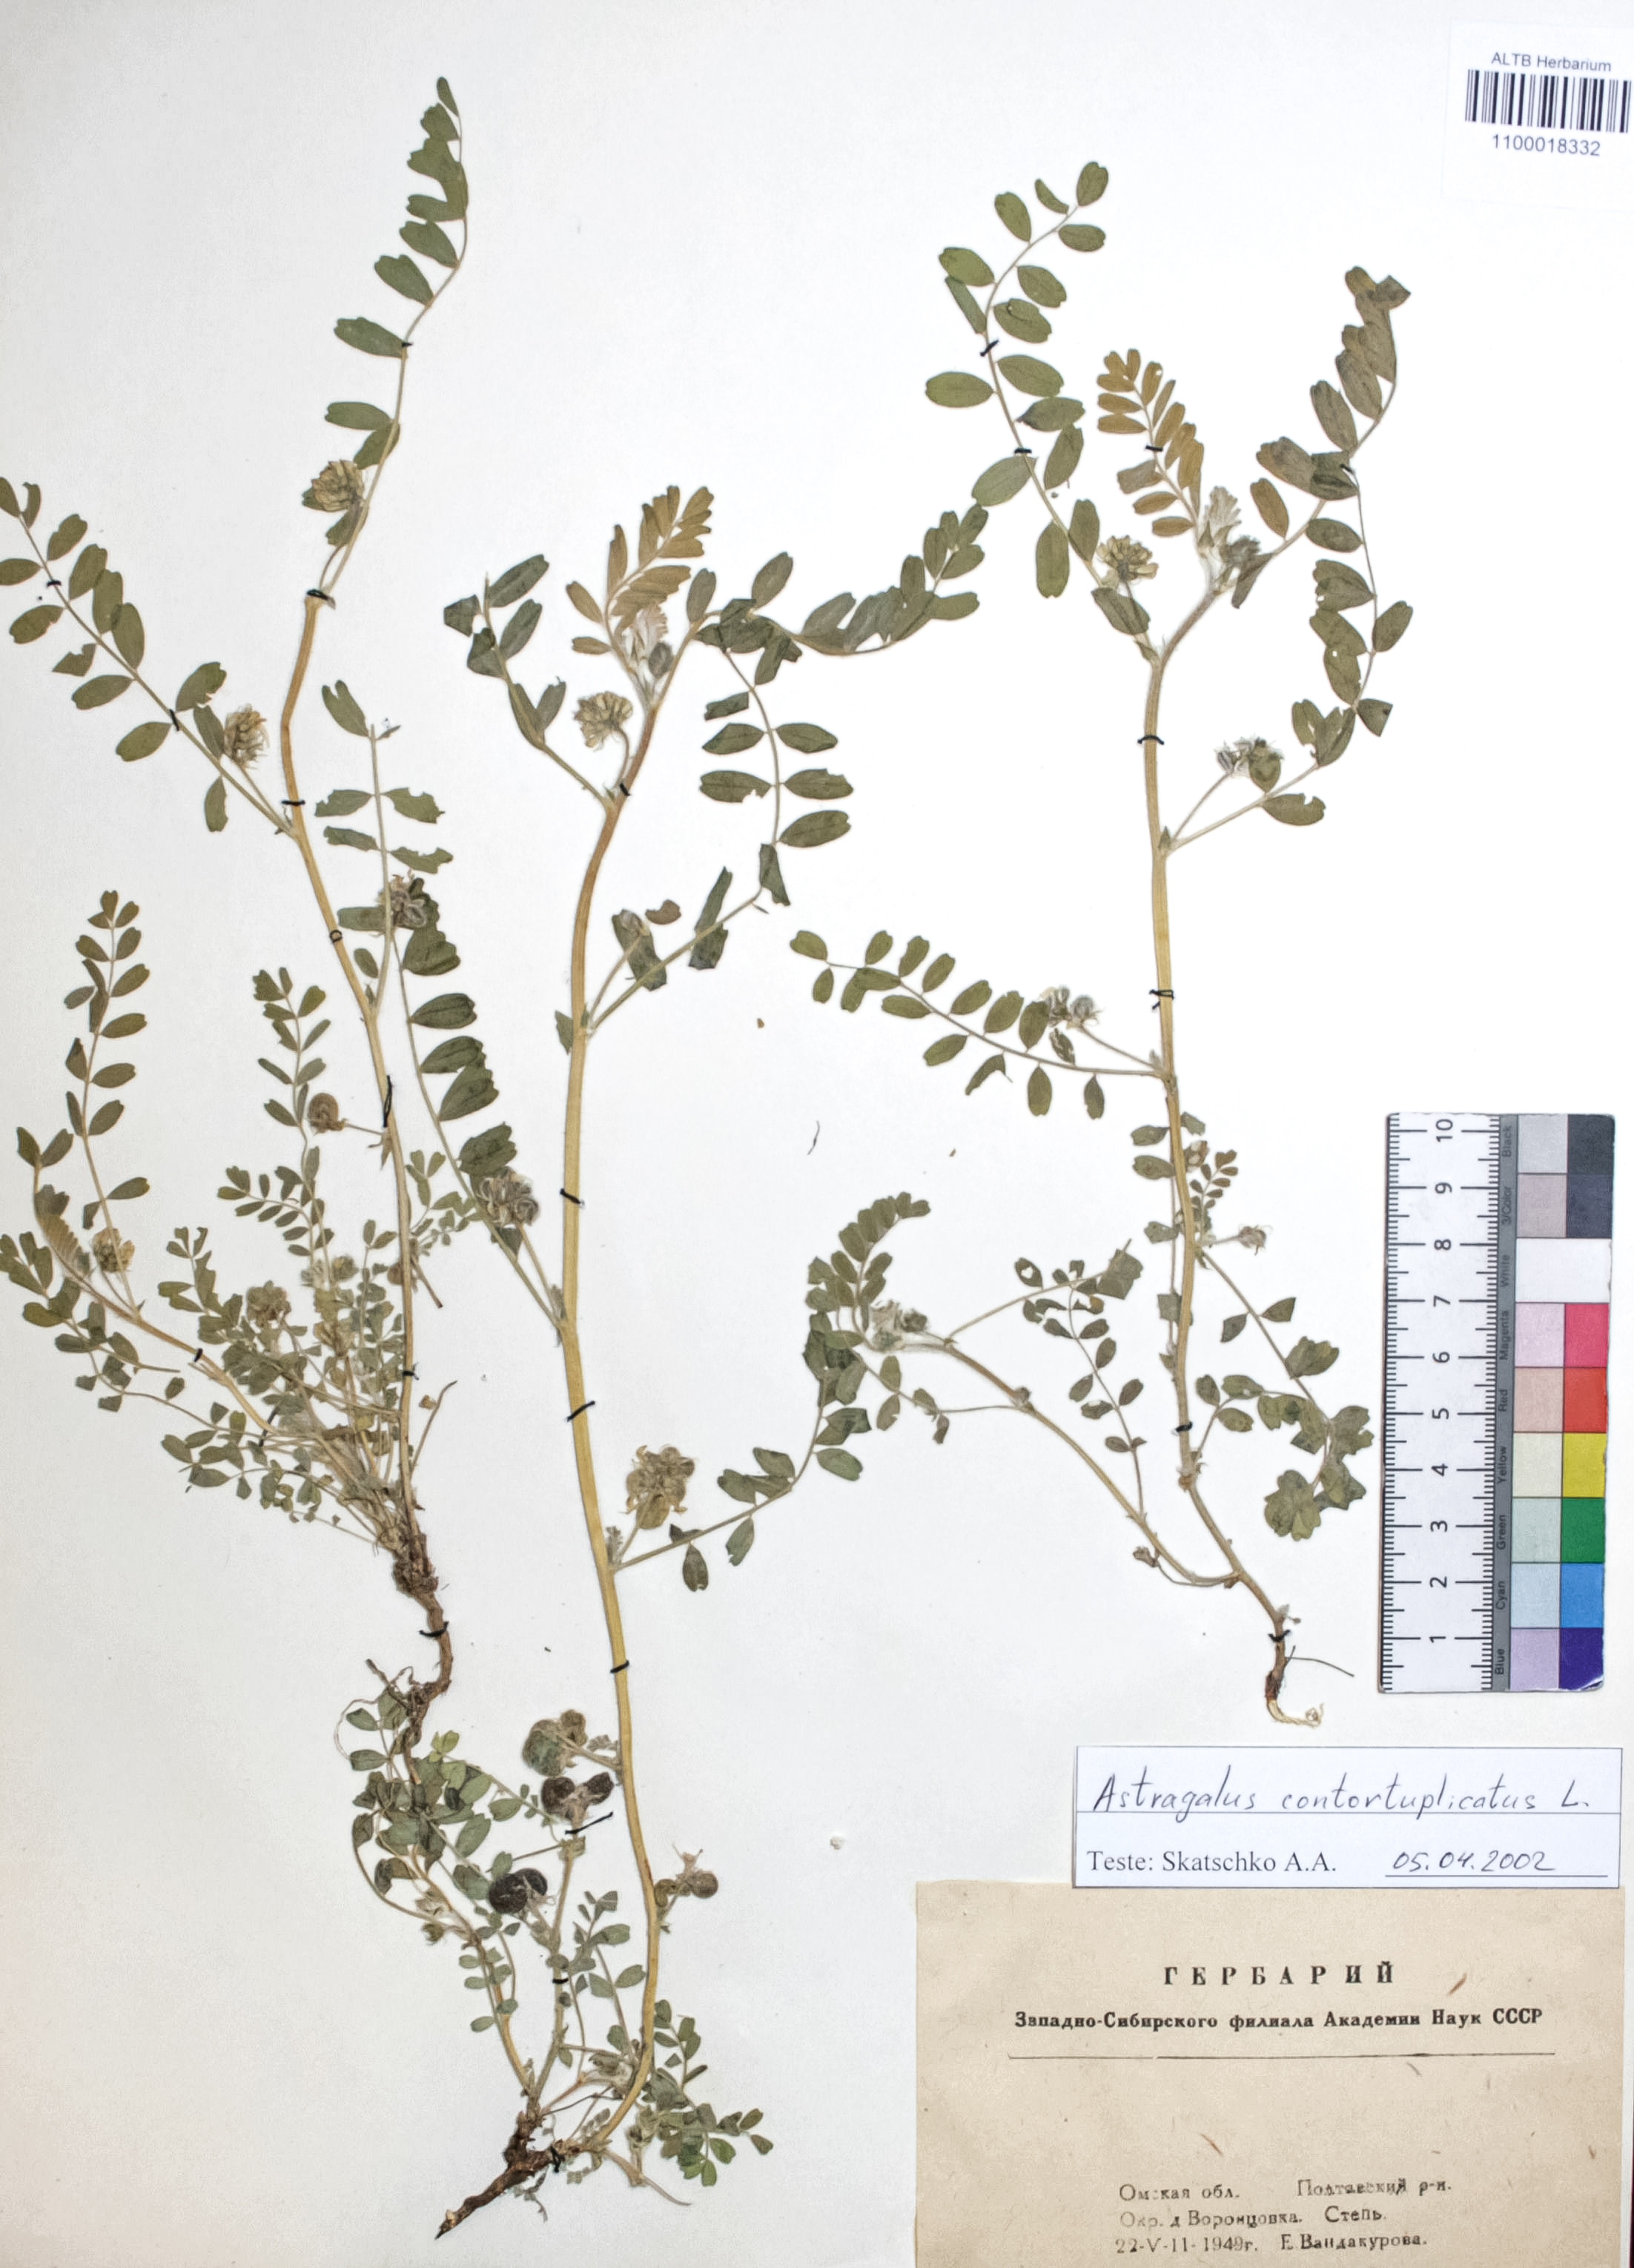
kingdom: Plantae
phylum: Tracheophyta
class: Magnoliopsida
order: Fabales
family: Fabaceae
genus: Astragalus
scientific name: Astragalus contortuplicatus
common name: Hungarian milkvetch
